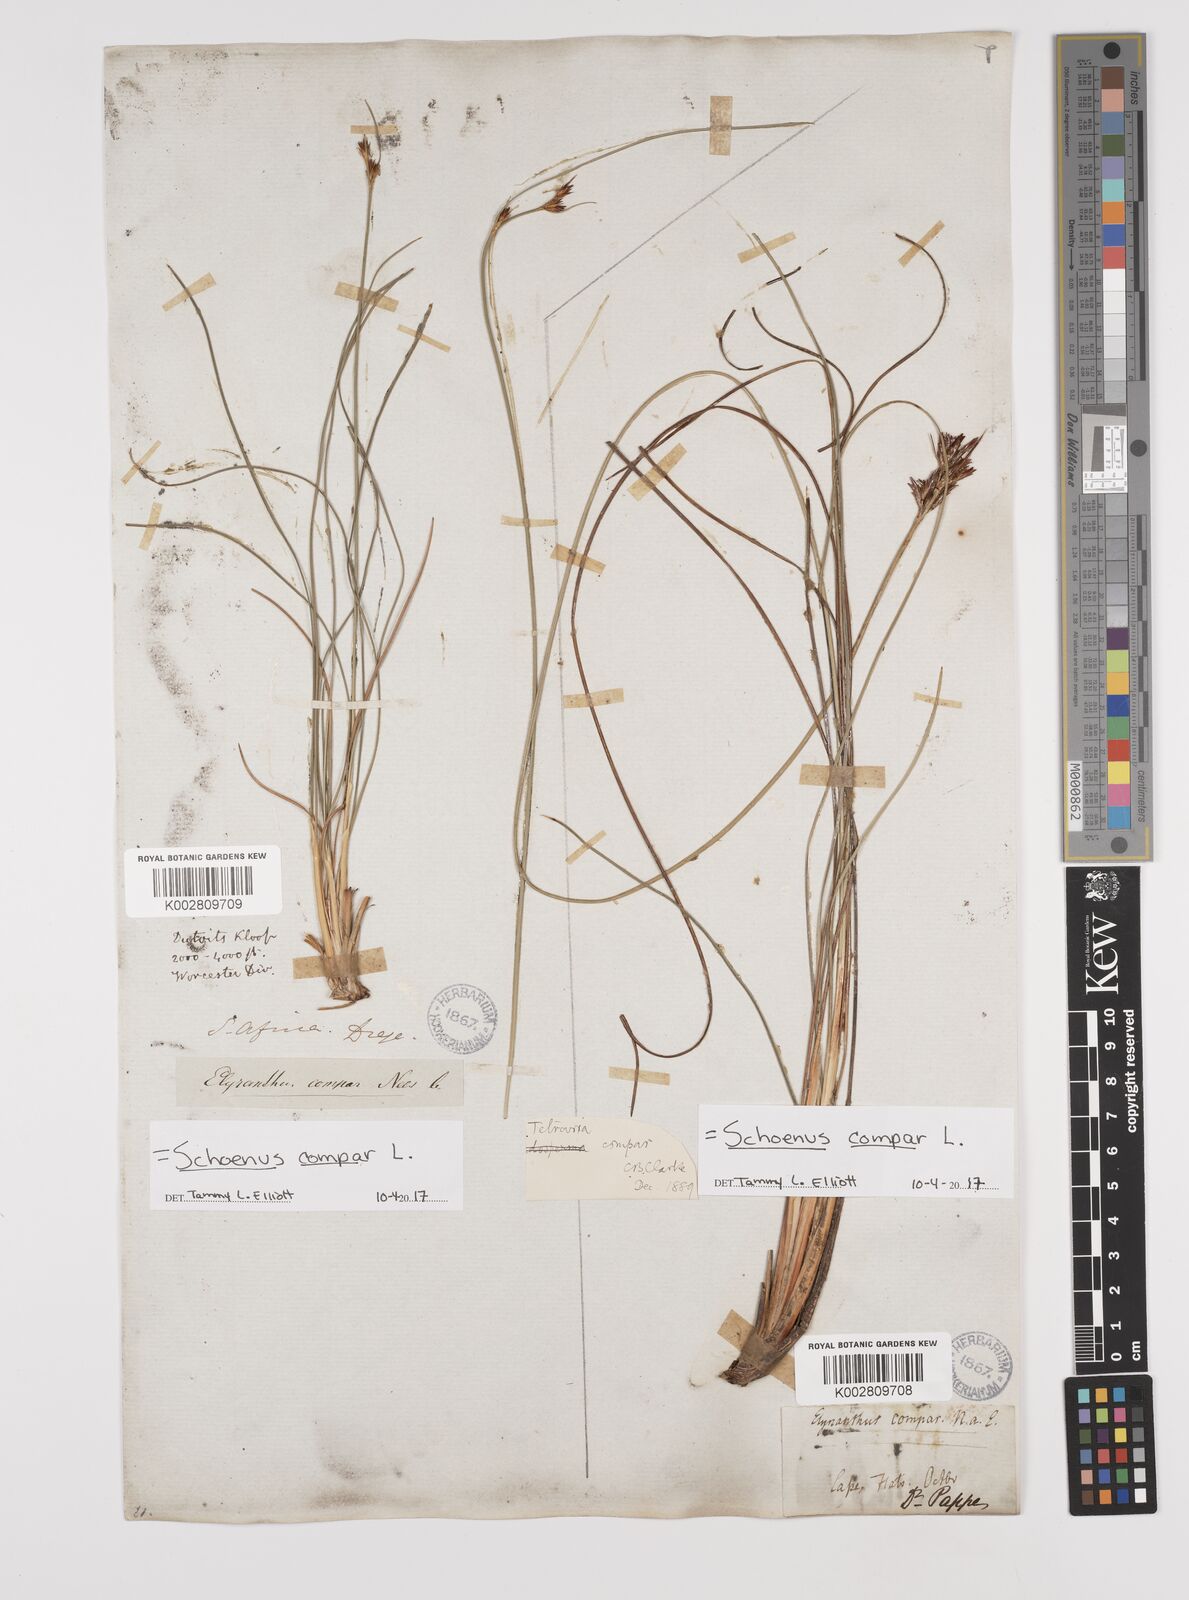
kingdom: Plantae
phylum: Tracheophyta
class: Liliopsida
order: Poales
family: Cyperaceae
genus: Schoenus
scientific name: Schoenus compar
